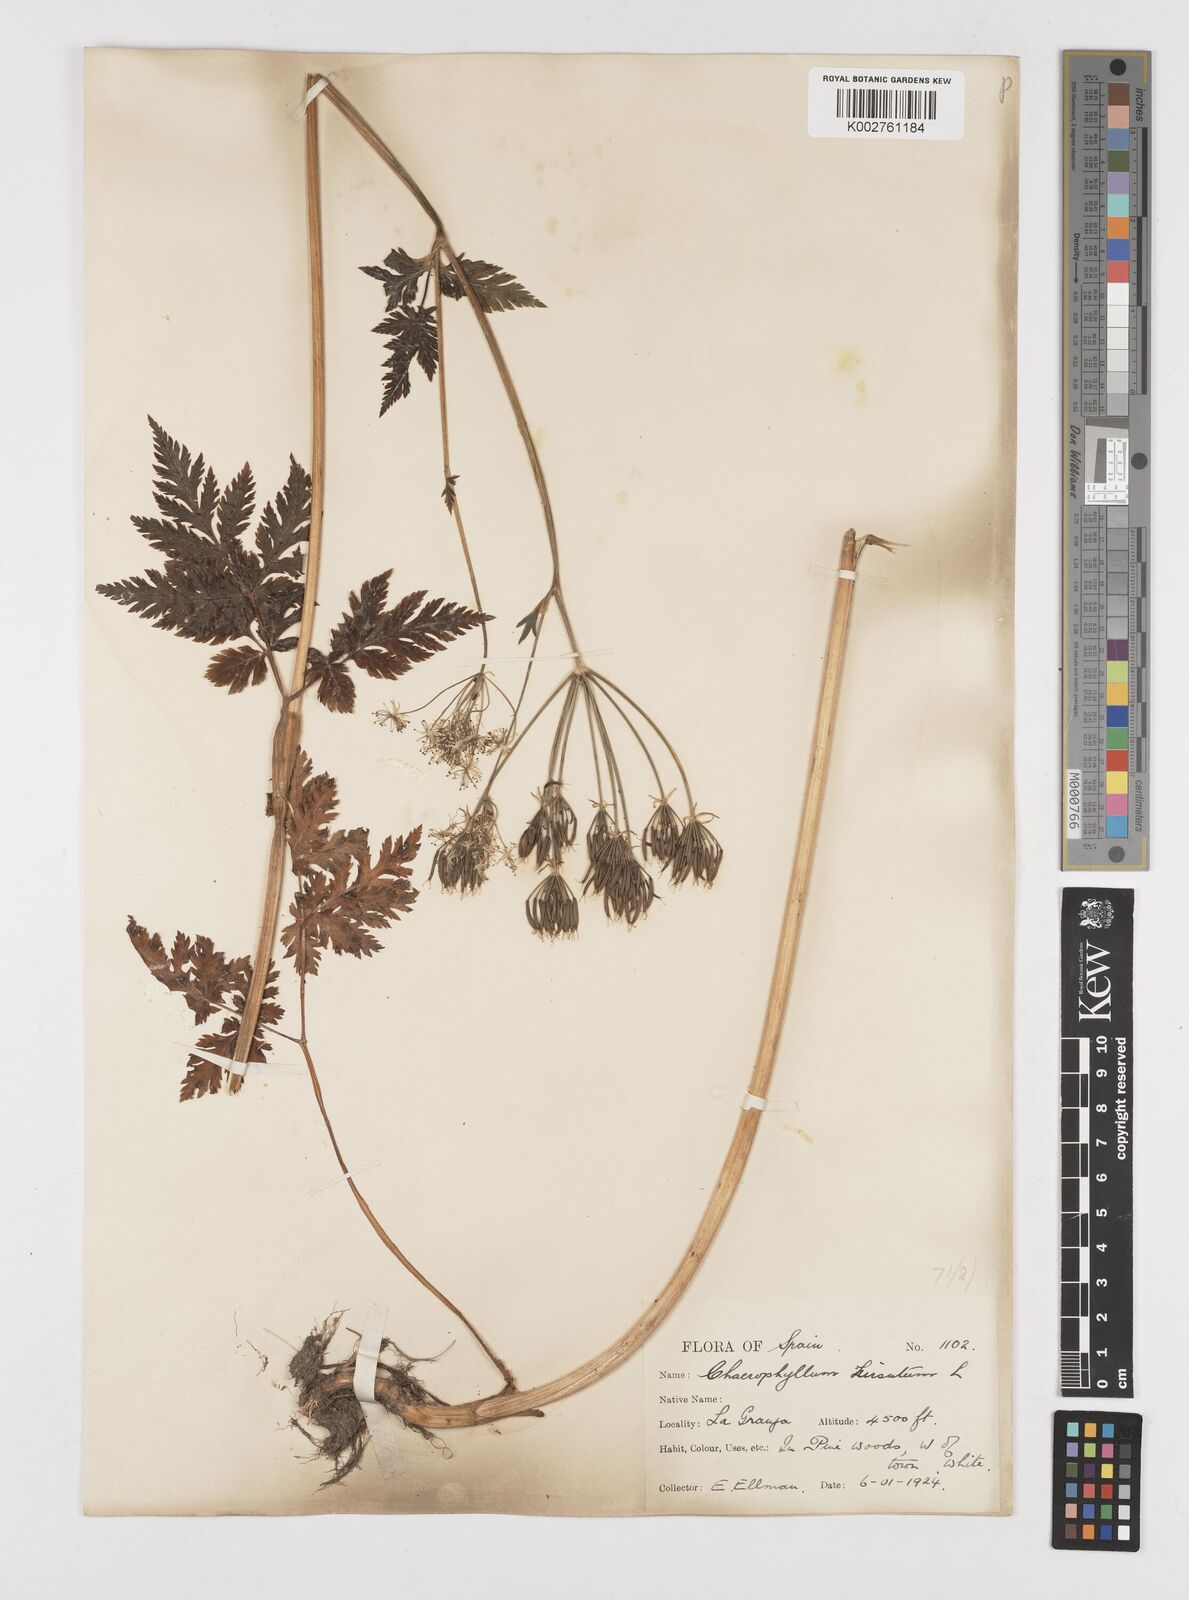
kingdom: Plantae
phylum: Tracheophyta
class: Magnoliopsida
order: Apiales
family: Apiaceae
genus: Chaerophyllum
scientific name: Chaerophyllum hirsutum
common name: Hairy chervil
